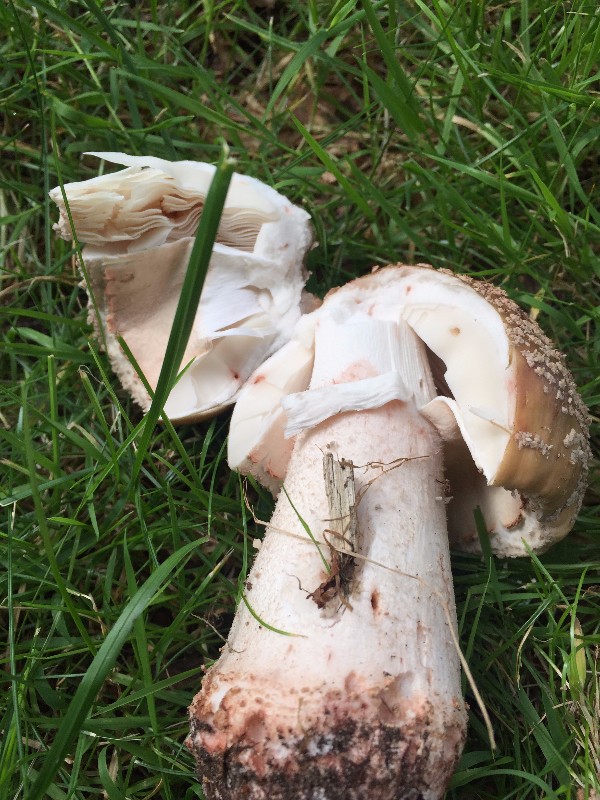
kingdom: Fungi
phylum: Basidiomycota
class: Agaricomycetes
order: Agaricales
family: Amanitaceae
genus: Amanita
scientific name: Amanita rubescens
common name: rødmende fluesvamp
